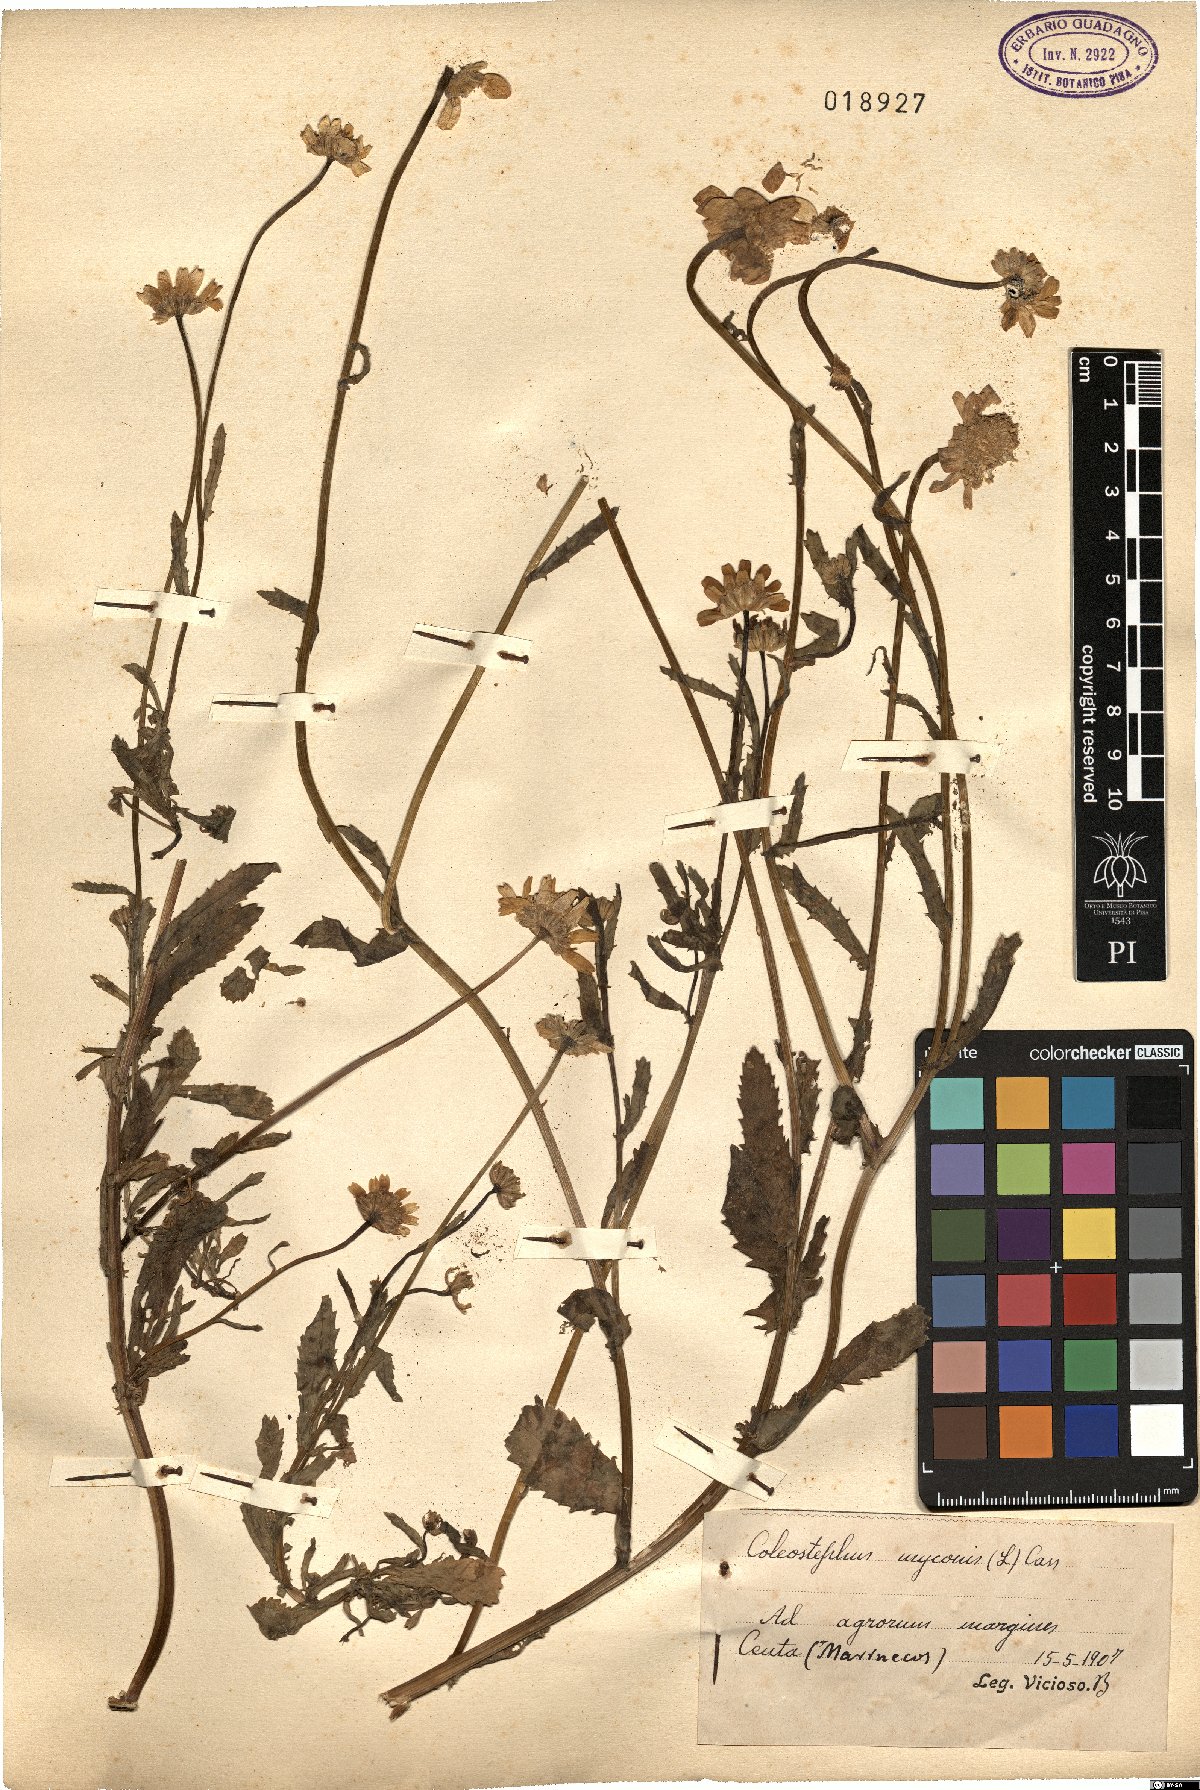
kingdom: Plantae
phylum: Tracheophyta
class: Magnoliopsida
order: Asterales
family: Asteraceae
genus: Coleostephus
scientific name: Coleostephus myconis
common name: Mediterranean marigold
